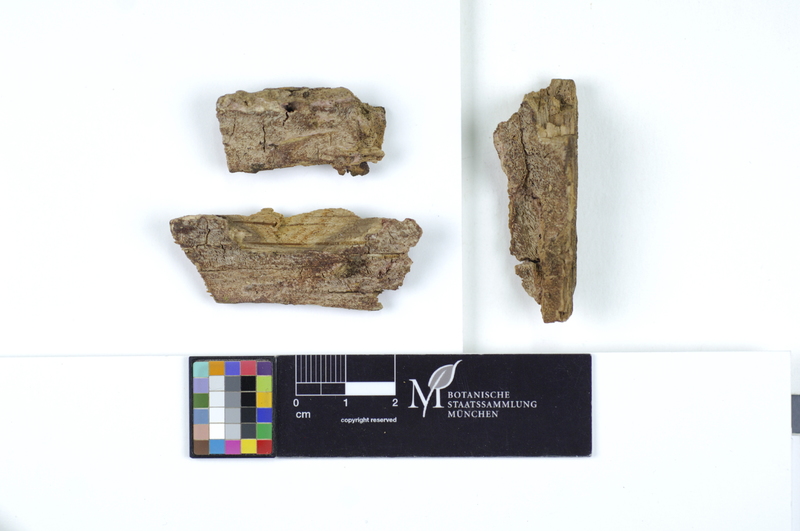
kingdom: Plantae
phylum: Tracheophyta
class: Magnoliopsida
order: Fagales
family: Fagaceae
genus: Quercus
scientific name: Quercus
